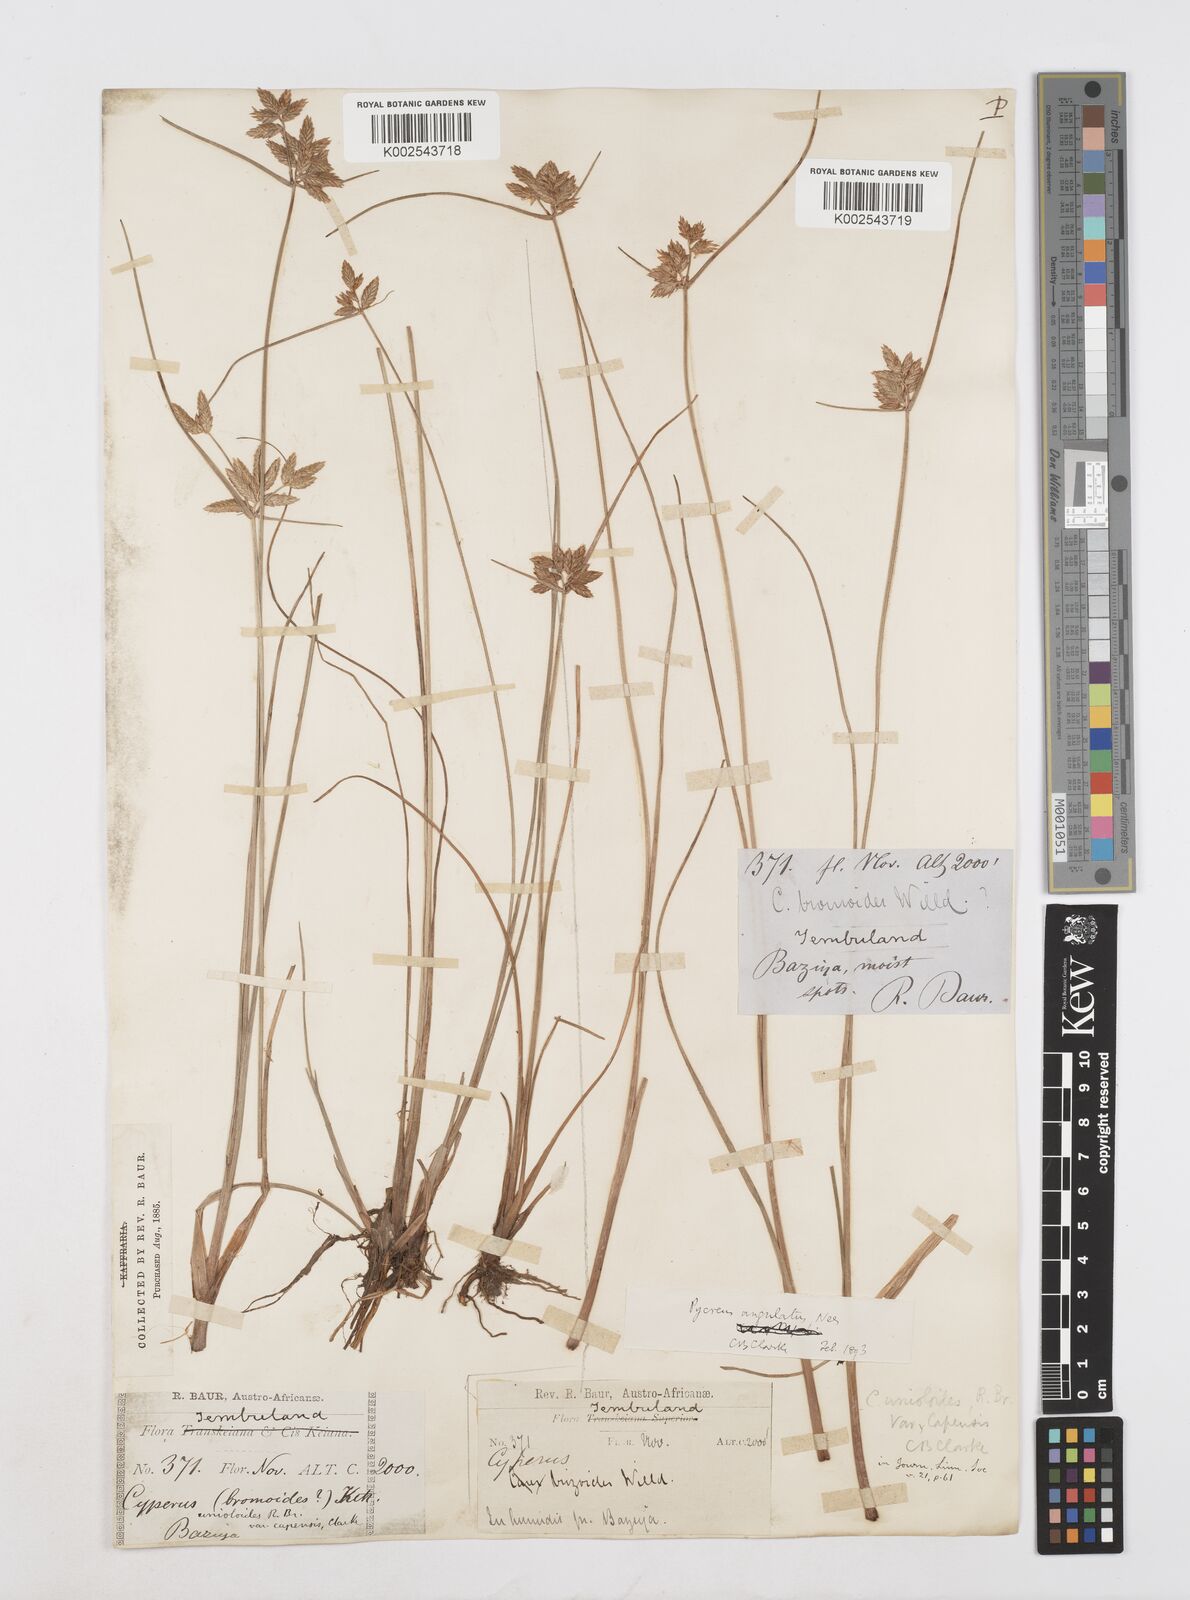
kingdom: Plantae
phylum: Tracheophyta
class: Liliopsida
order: Poales
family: Cyperaceae
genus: Cyperus
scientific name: Cyperus unioloides
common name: Uniola flatsedge
